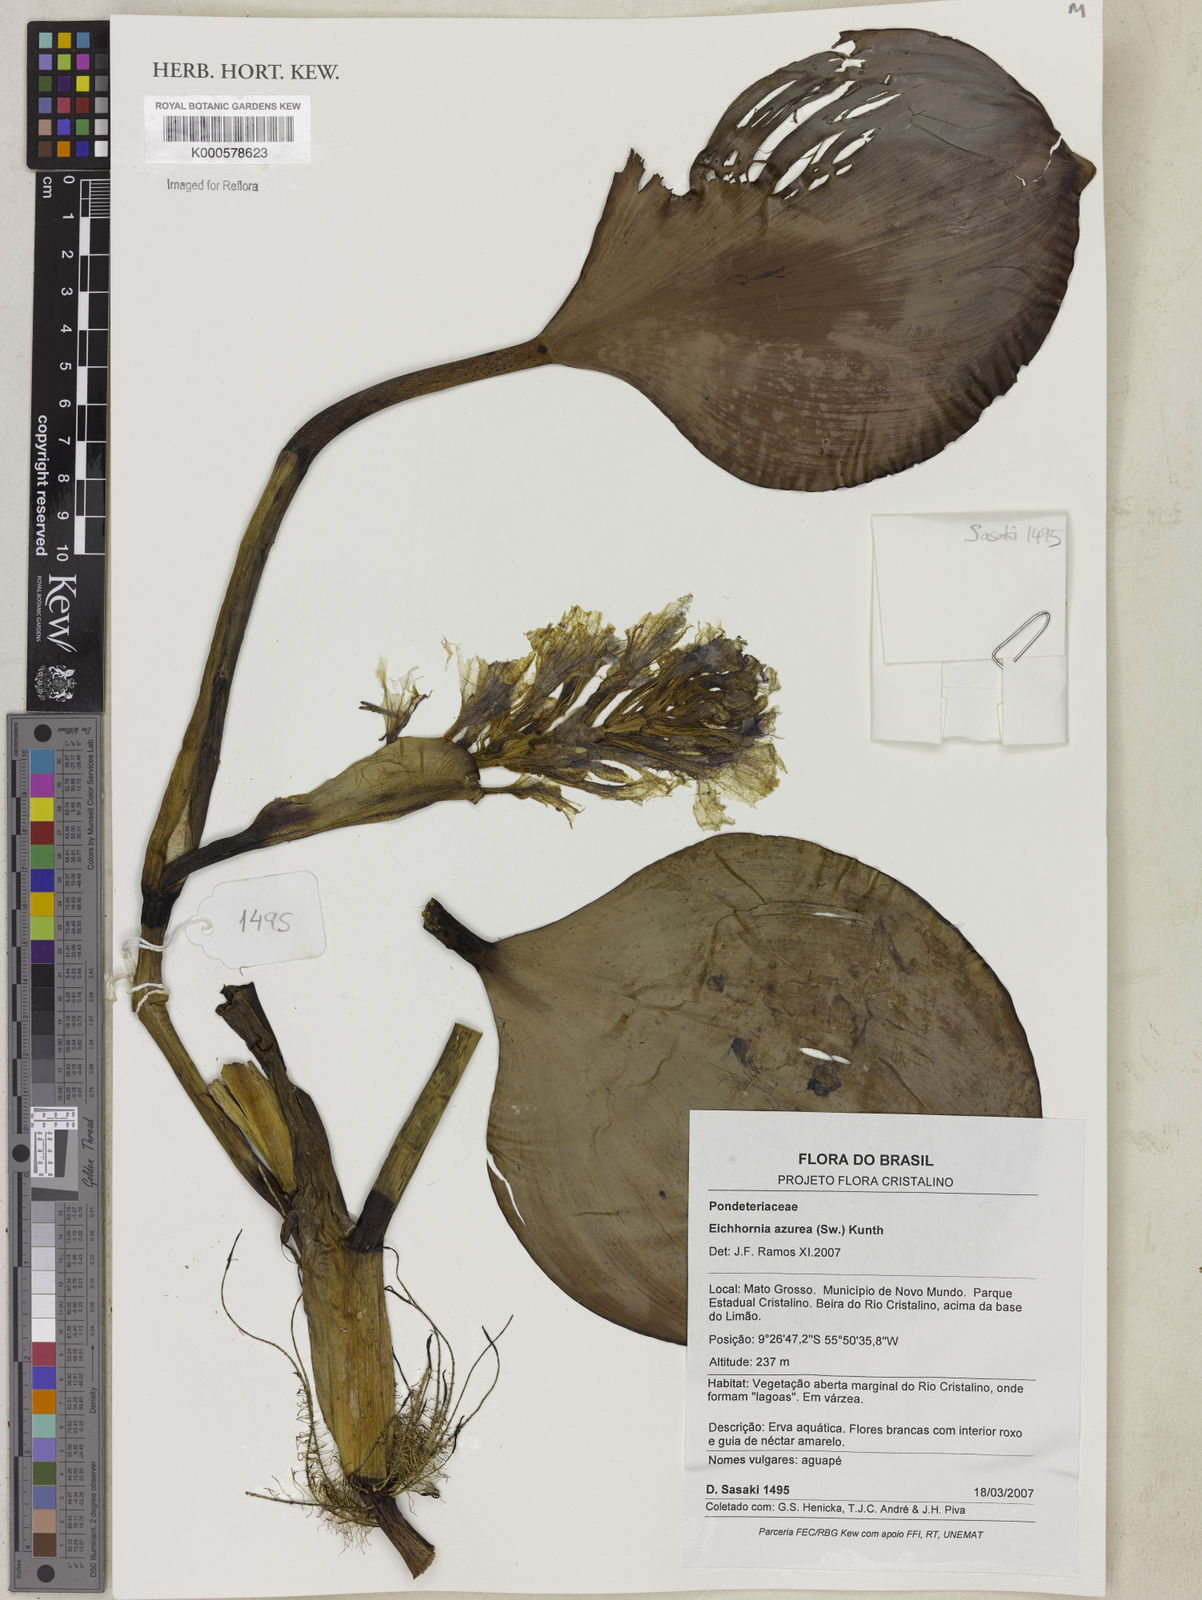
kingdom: Plantae
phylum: Tracheophyta
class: Liliopsida
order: Commelinales
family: Pontederiaceae
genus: Pontederia
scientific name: Pontederia azurea
